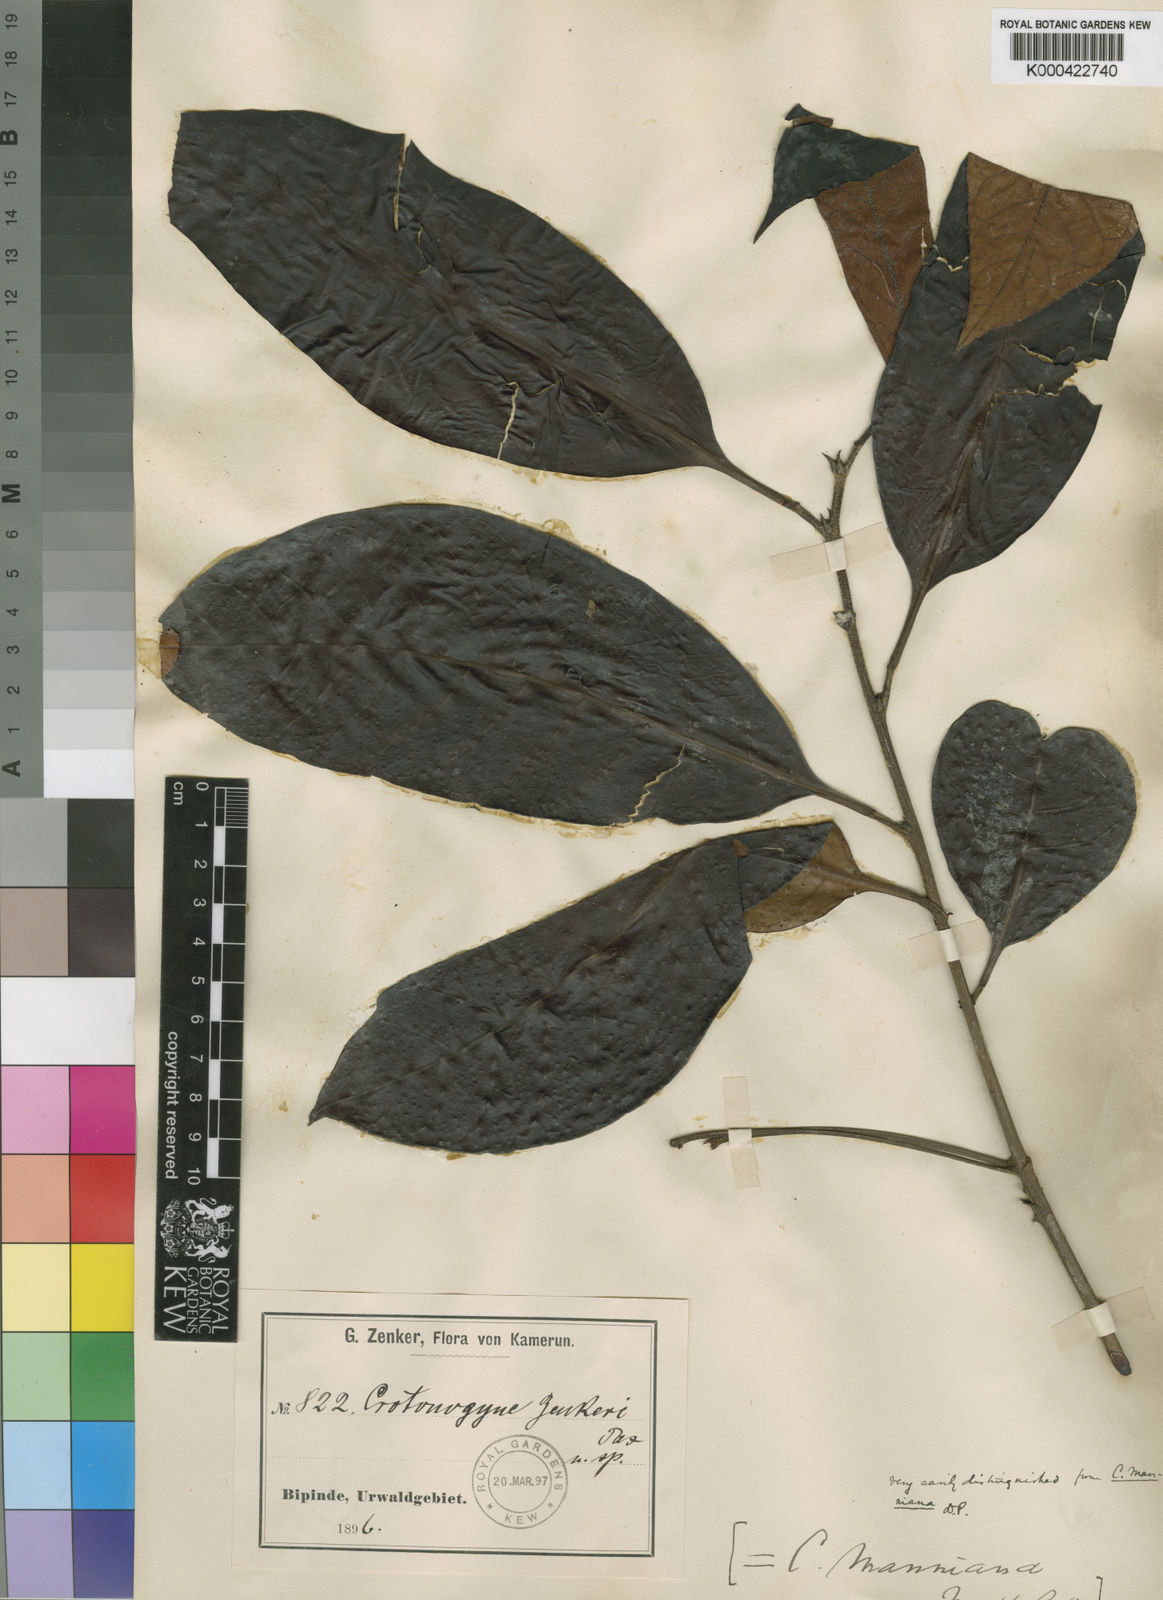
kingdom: Plantae
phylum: Tracheophyta
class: Magnoliopsida
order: Malpighiales
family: Euphorbiaceae
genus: Crotonogyne
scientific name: Crotonogyne zenkeri
